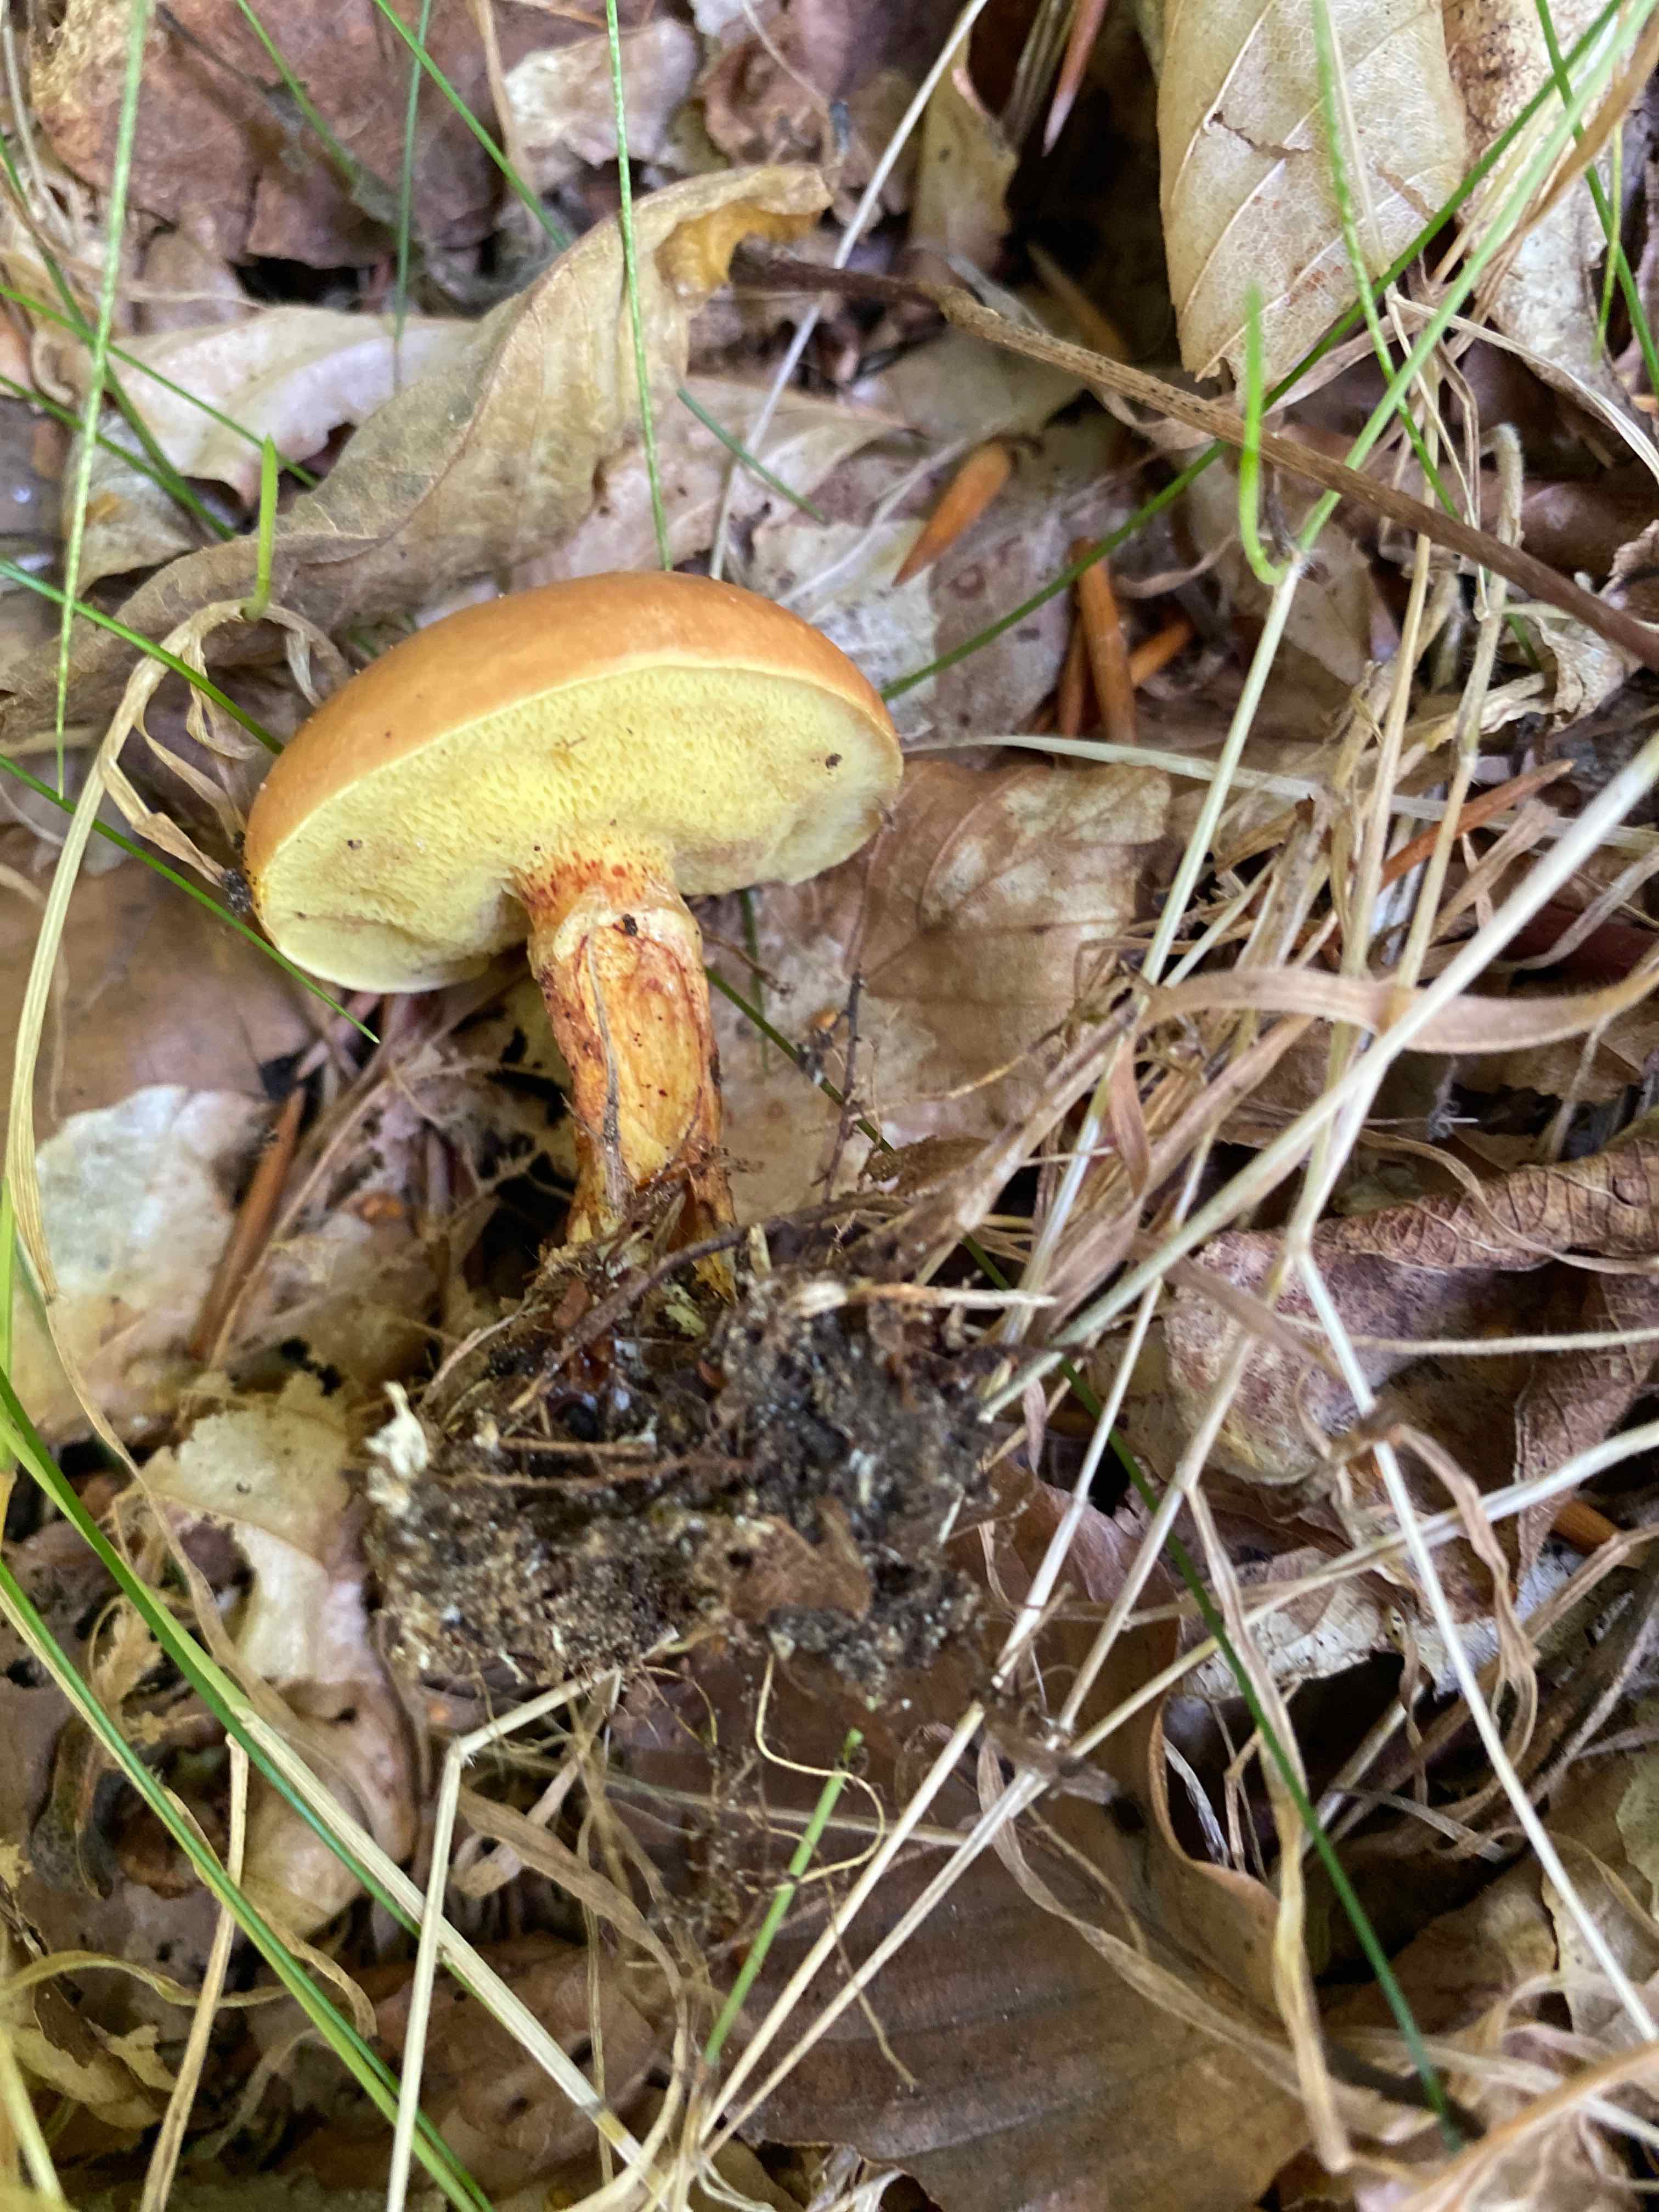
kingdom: Fungi
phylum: Basidiomycota
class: Agaricomycetes
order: Boletales
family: Suillaceae
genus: Suillus
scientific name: Suillus grevillei
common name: lærke-slimrørhat
